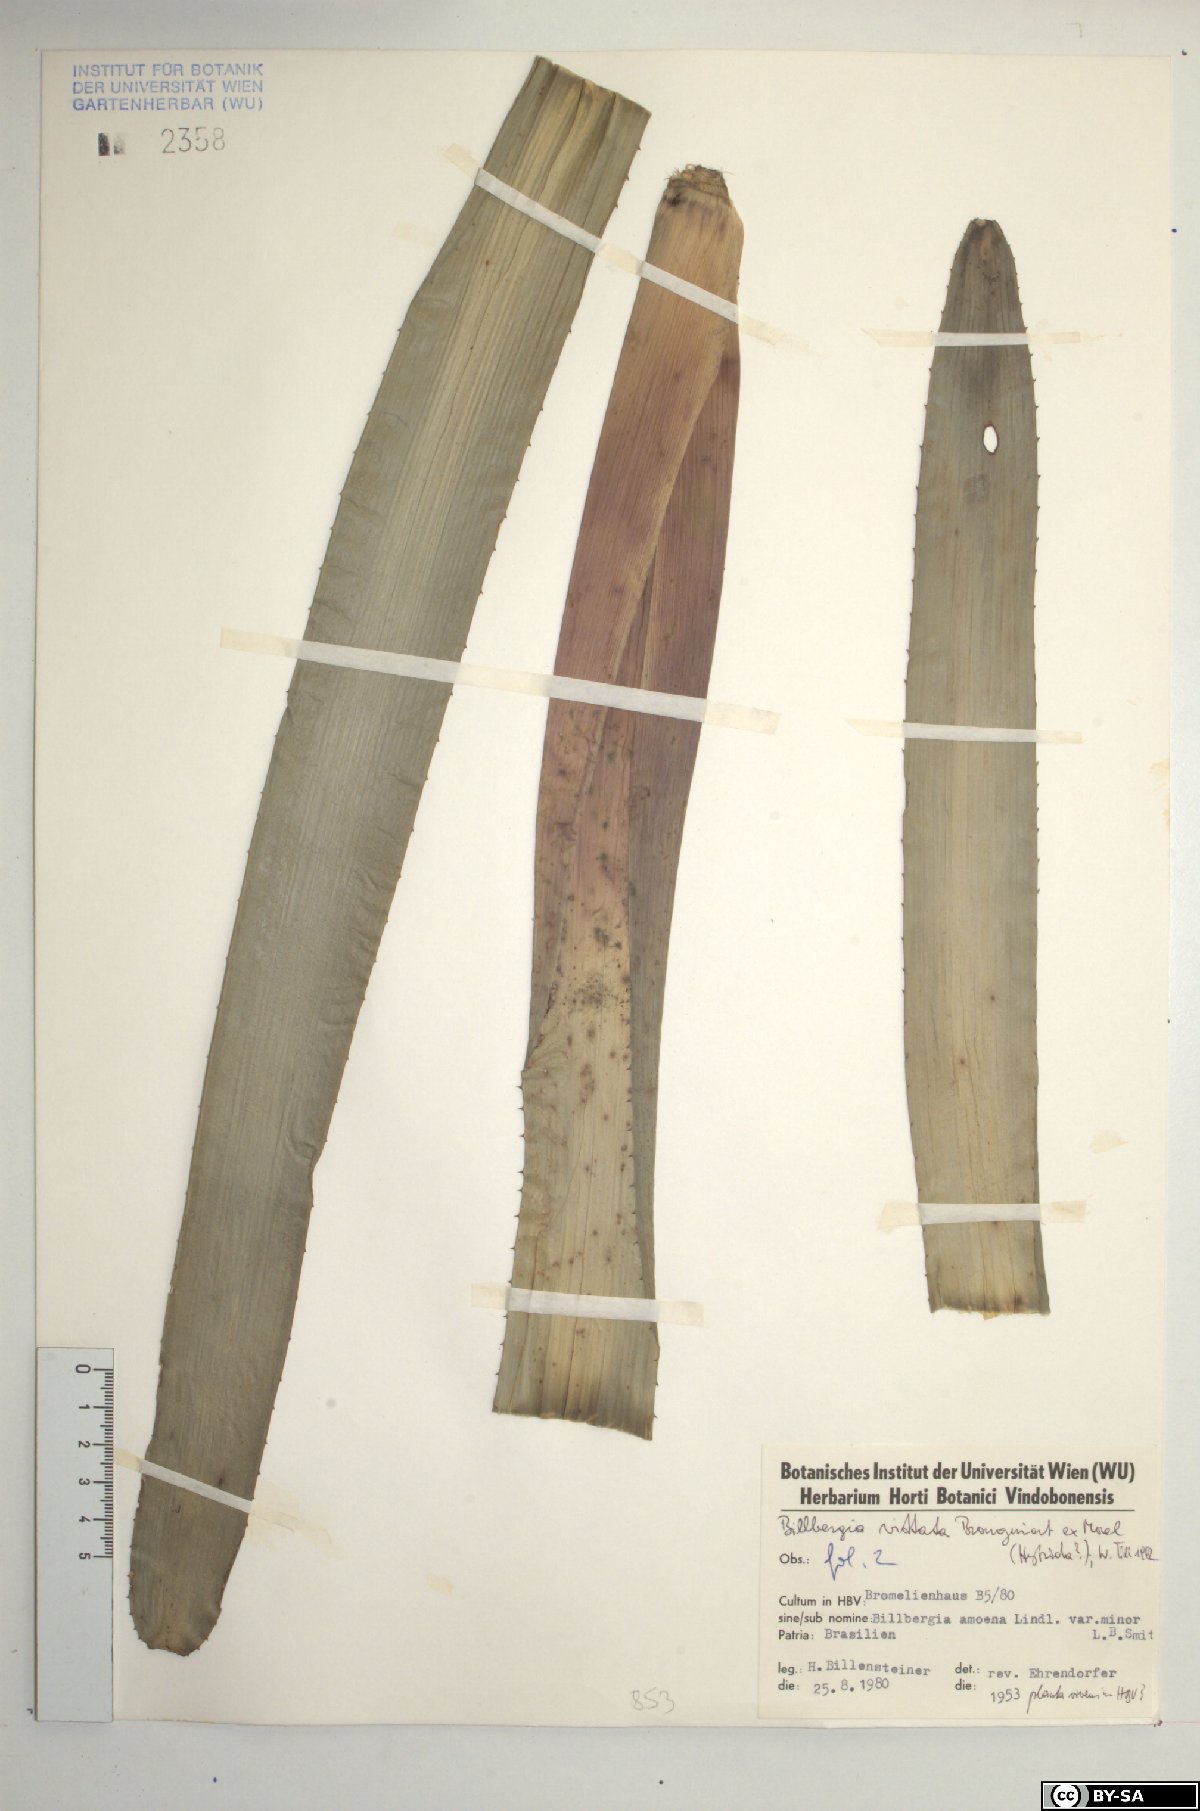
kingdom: Plantae
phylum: Tracheophyta
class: Liliopsida
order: Poales
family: Bromeliaceae
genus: Billbergia
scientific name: Billbergia vittata
